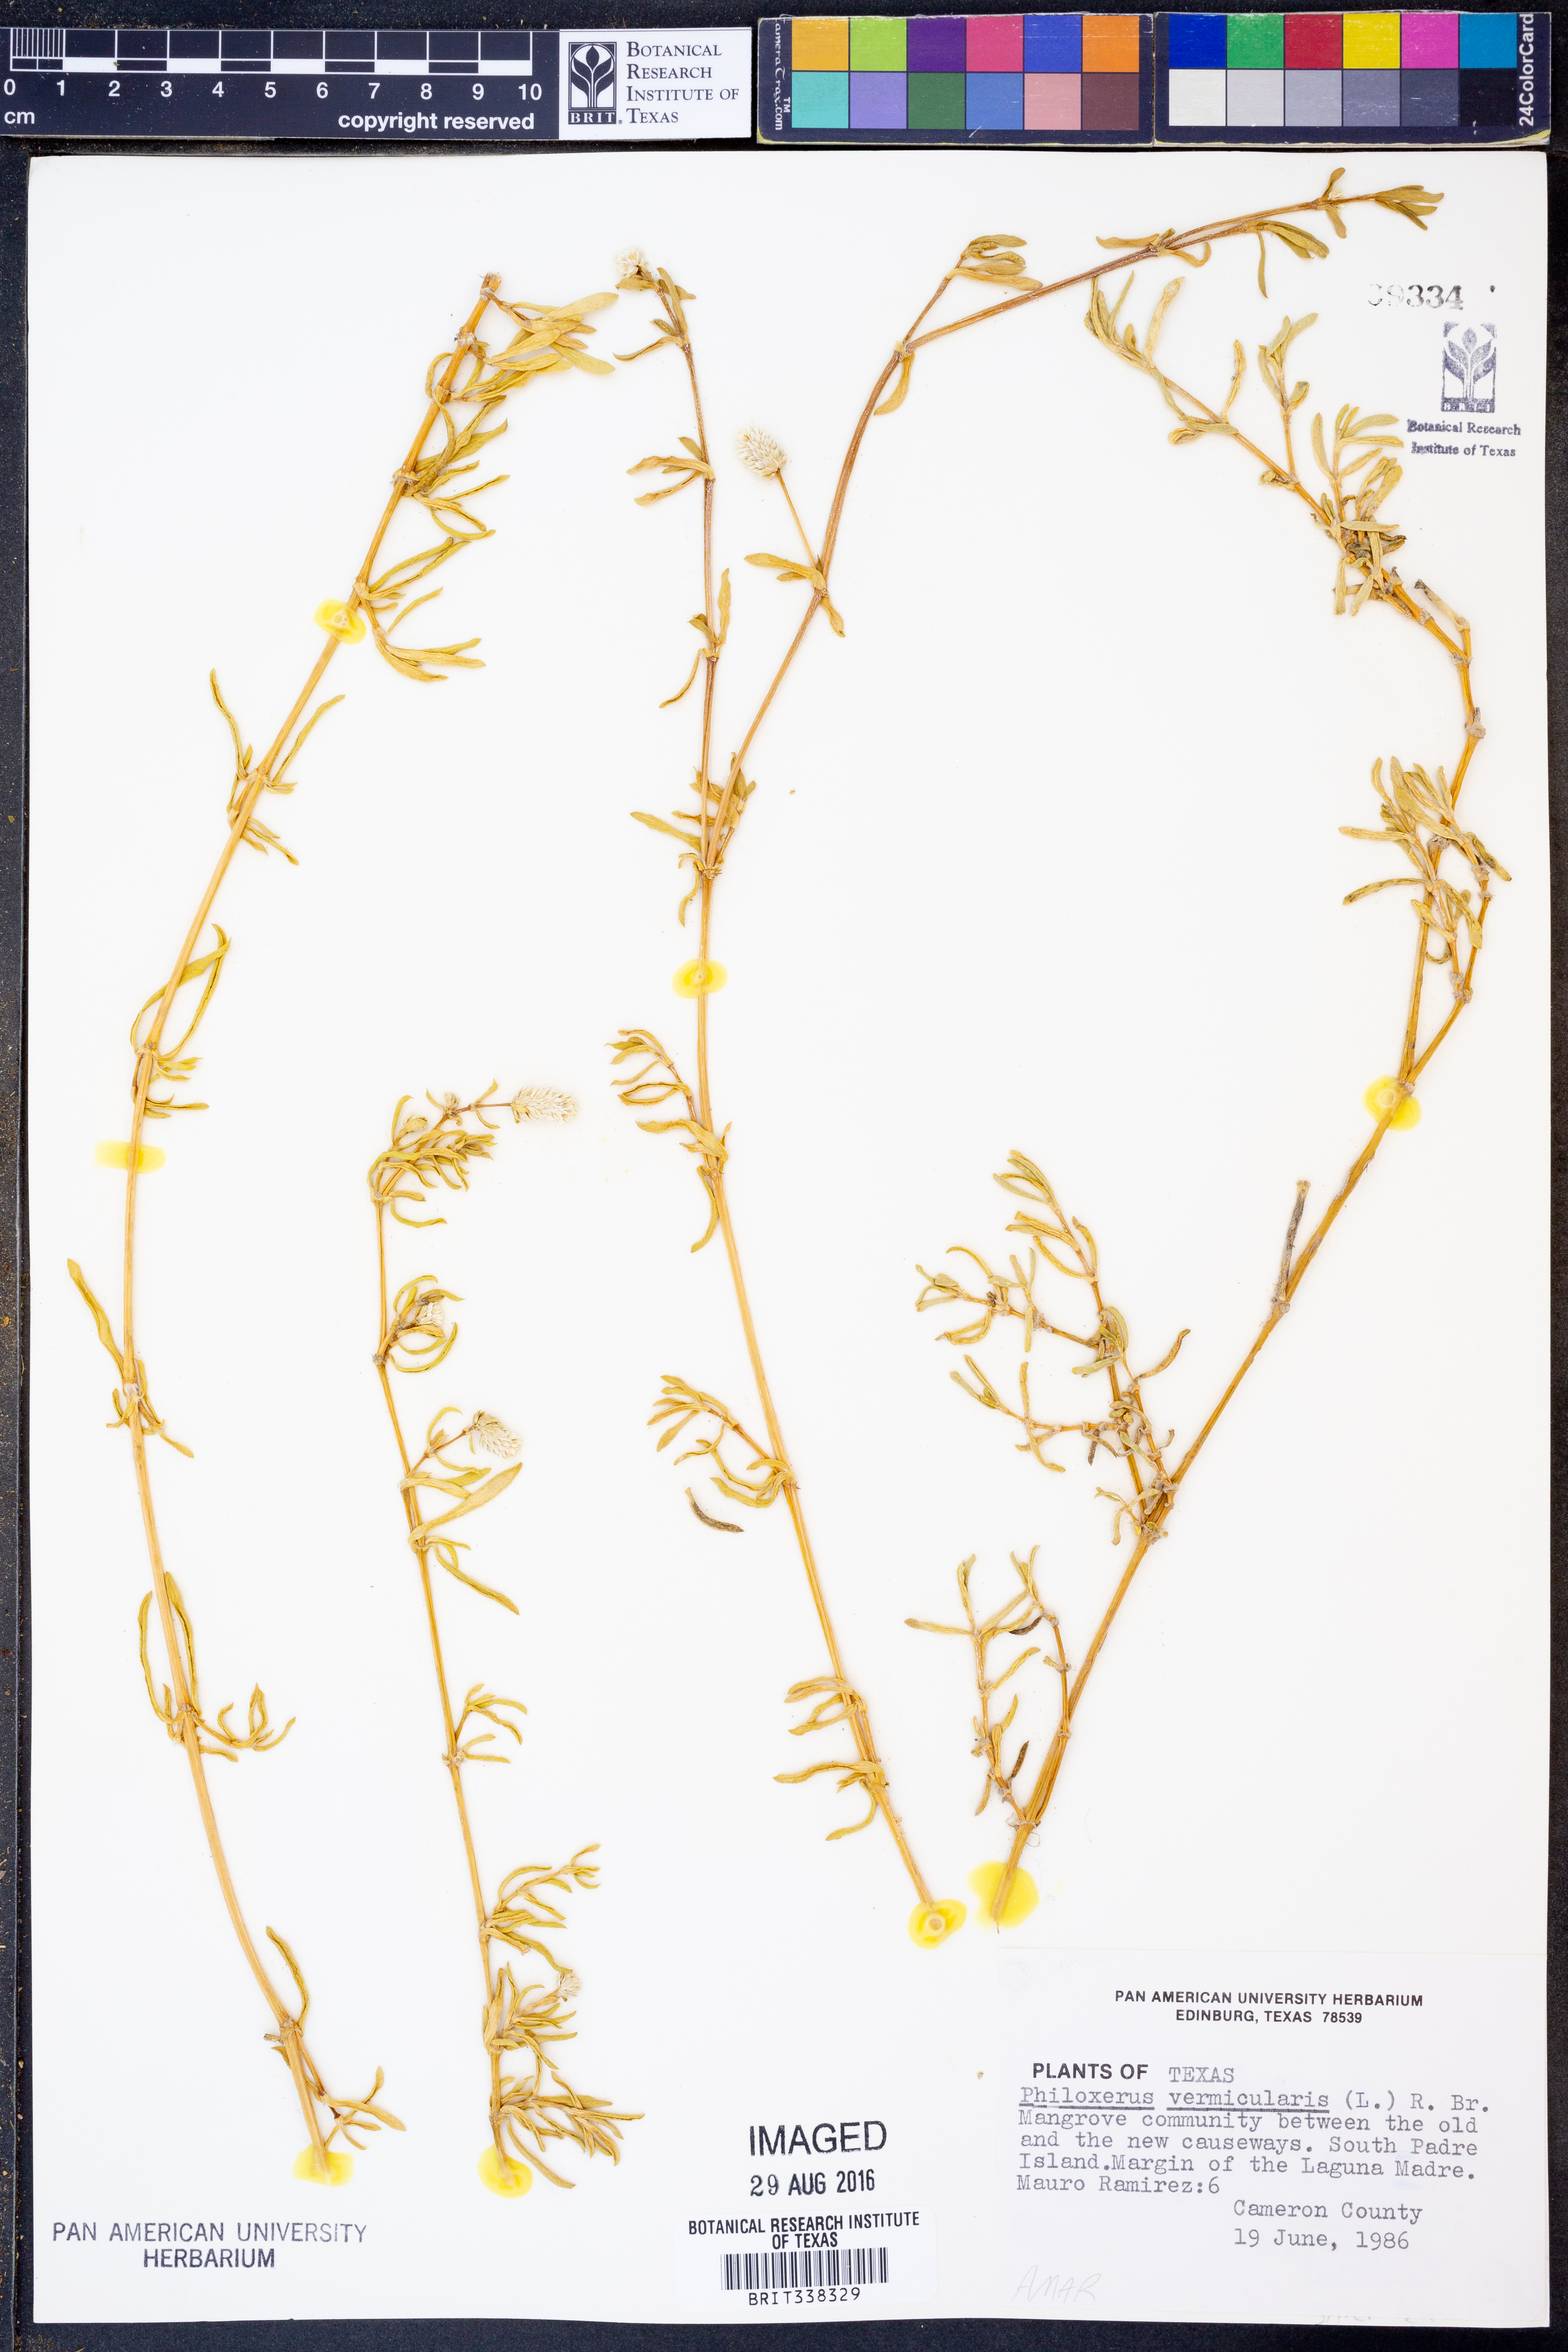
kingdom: Plantae
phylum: Tracheophyta
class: Magnoliopsida
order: Caryophyllales
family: Amaranthaceae
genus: Gomphrena
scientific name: Gomphrena
